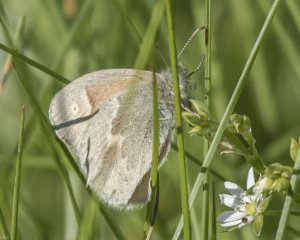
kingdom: Animalia
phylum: Arthropoda
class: Insecta
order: Lepidoptera
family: Nymphalidae
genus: Coenonympha
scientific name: Coenonympha tullia
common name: Large Heath
